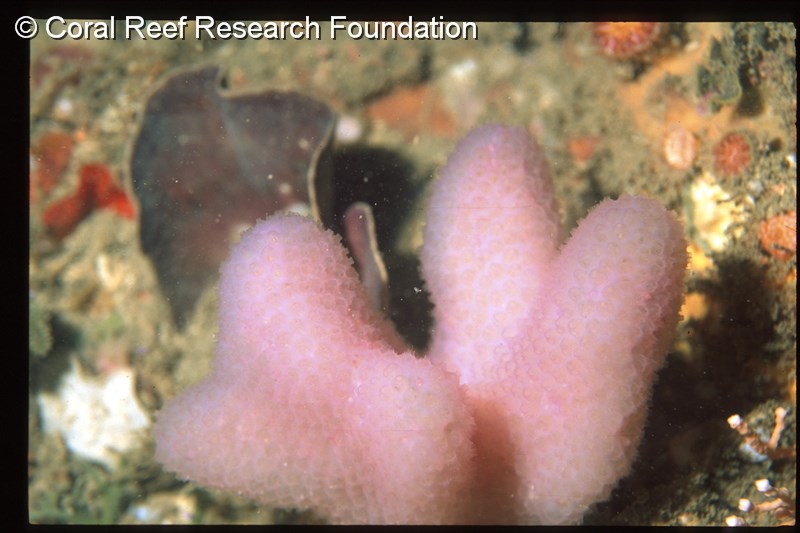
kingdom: Animalia
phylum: Chordata
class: Ascidiacea
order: Aplousobranchia
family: Holozoidae
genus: Sigillina
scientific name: Sigillina digitata
